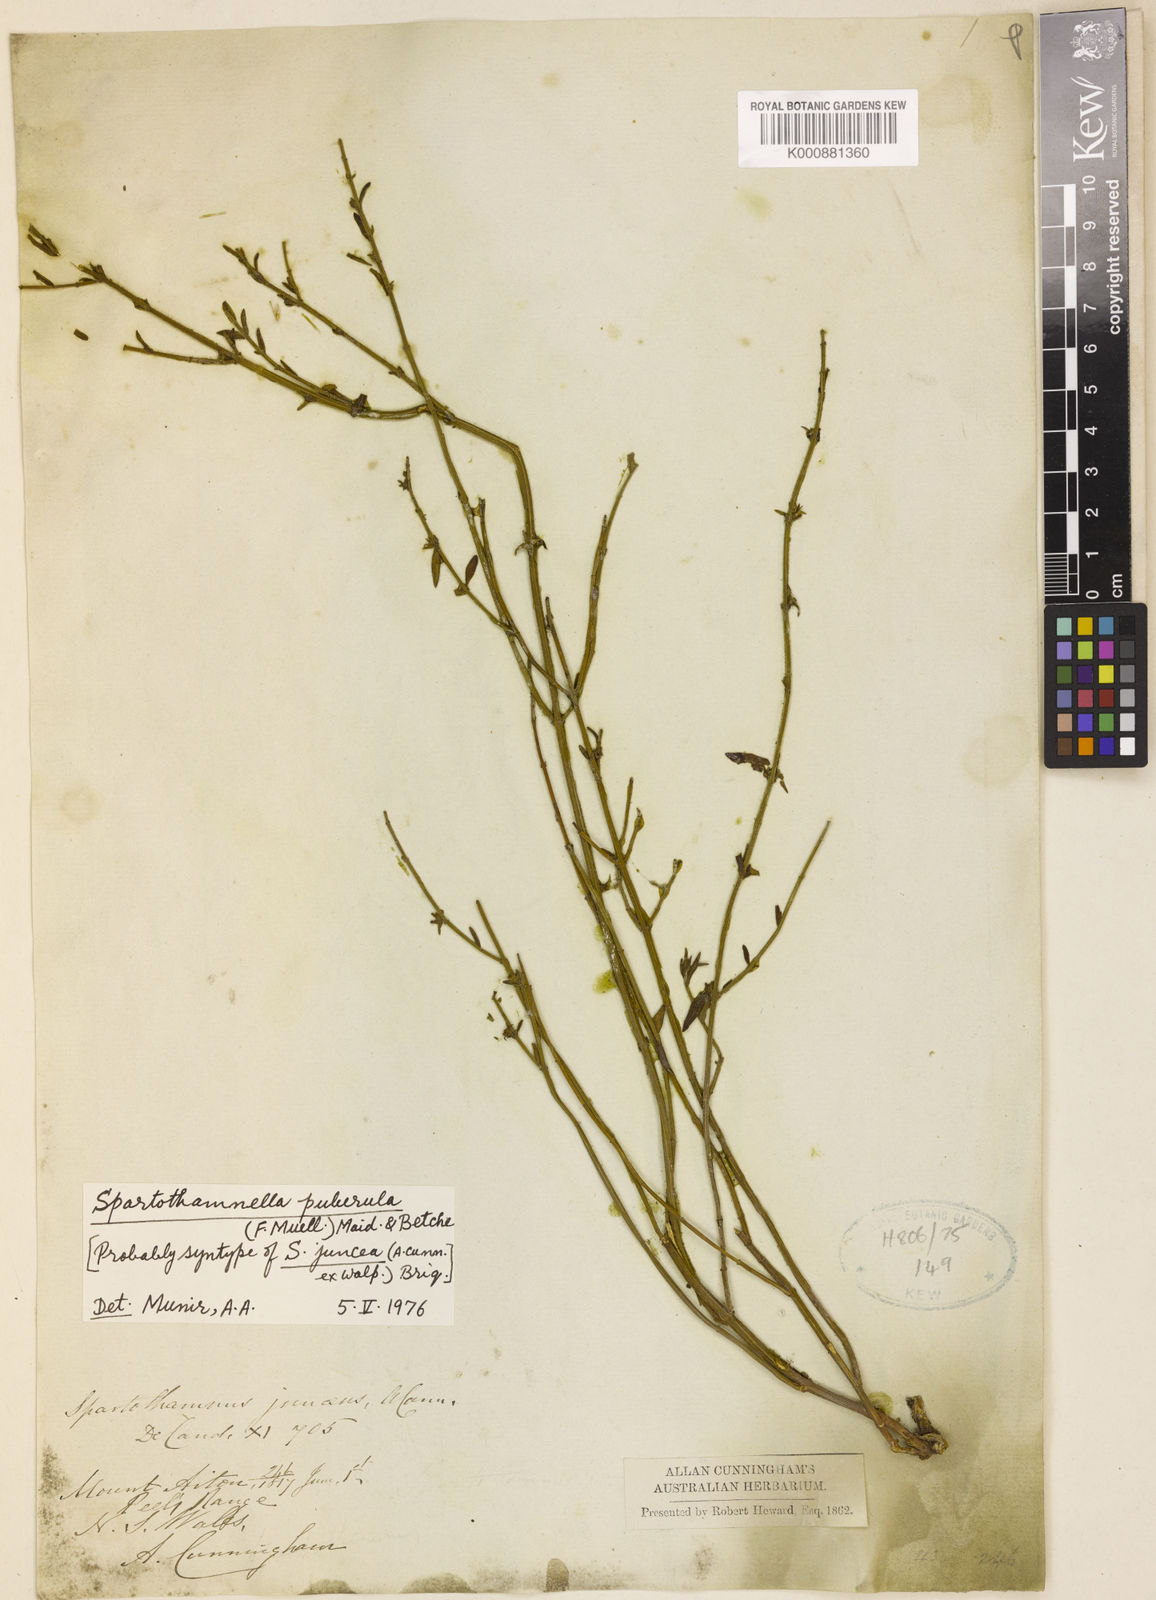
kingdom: Plantae
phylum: Tracheophyta
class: Magnoliopsida
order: Lamiales
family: Lamiaceae
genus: Teucrium
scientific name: Teucrium junceum
